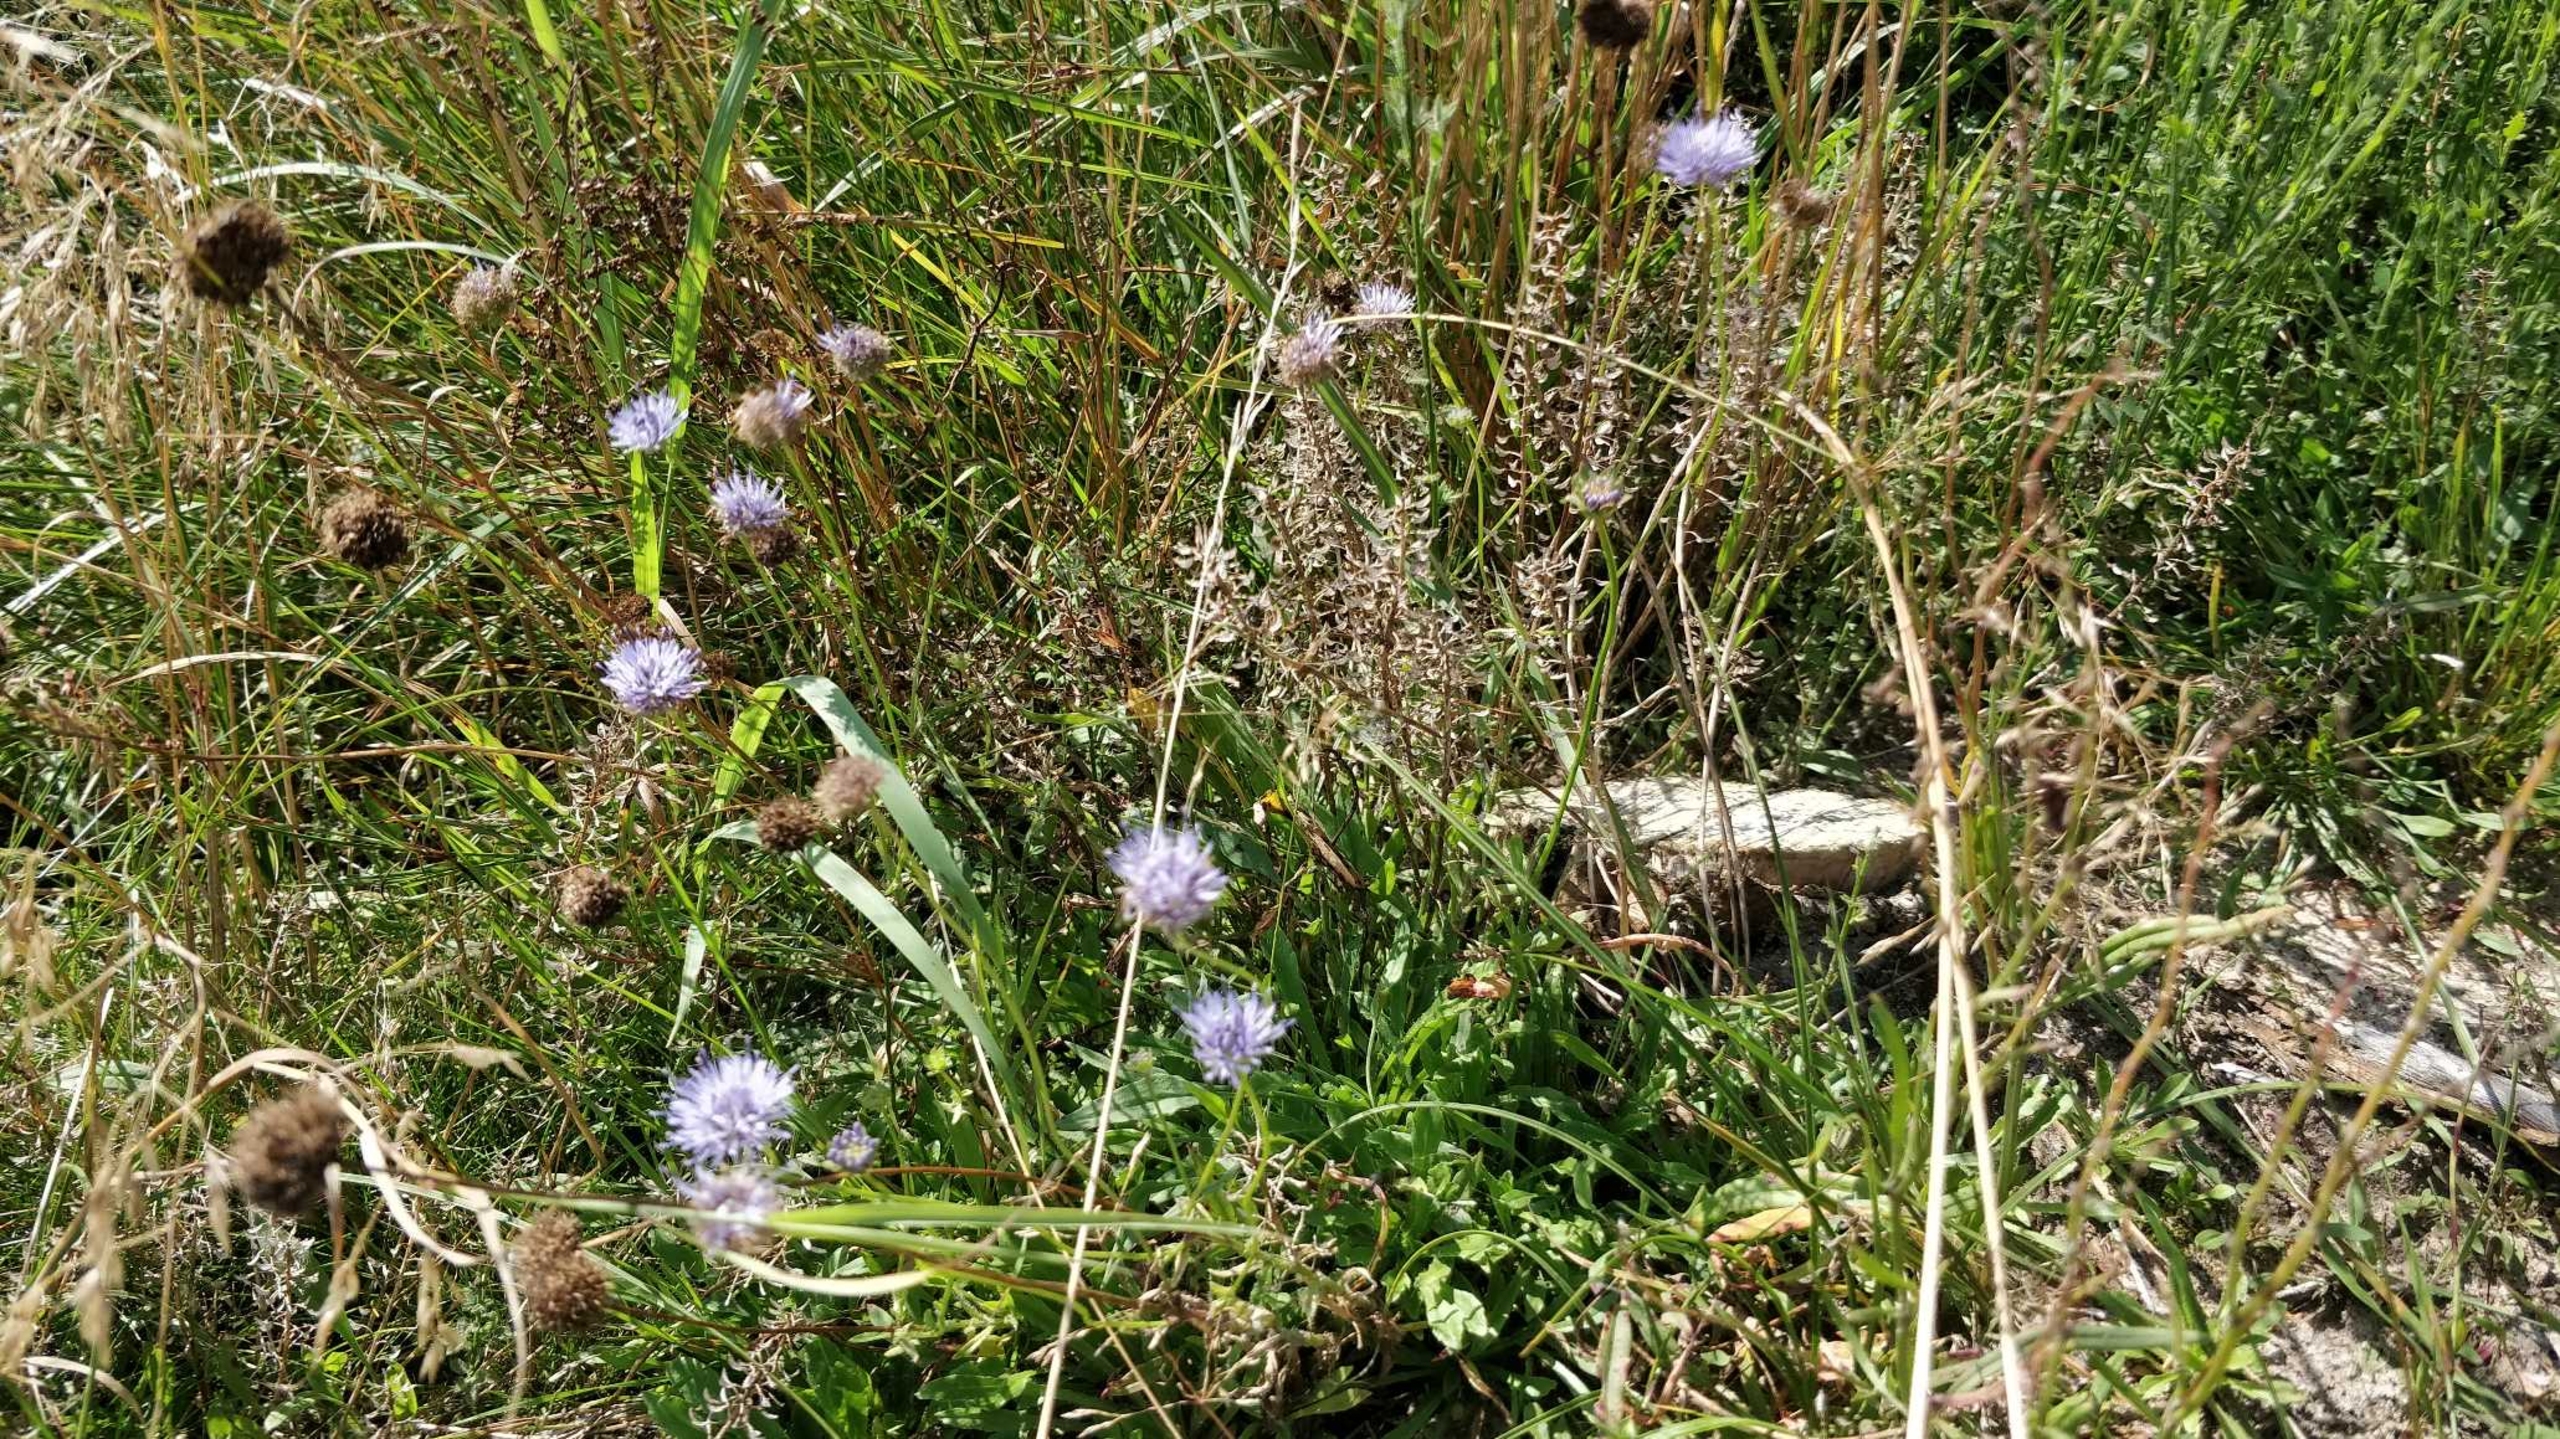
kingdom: Plantae
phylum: Tracheophyta
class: Magnoliopsida
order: Asterales
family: Campanulaceae
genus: Jasione
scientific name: Jasione montana
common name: Blåmunke
